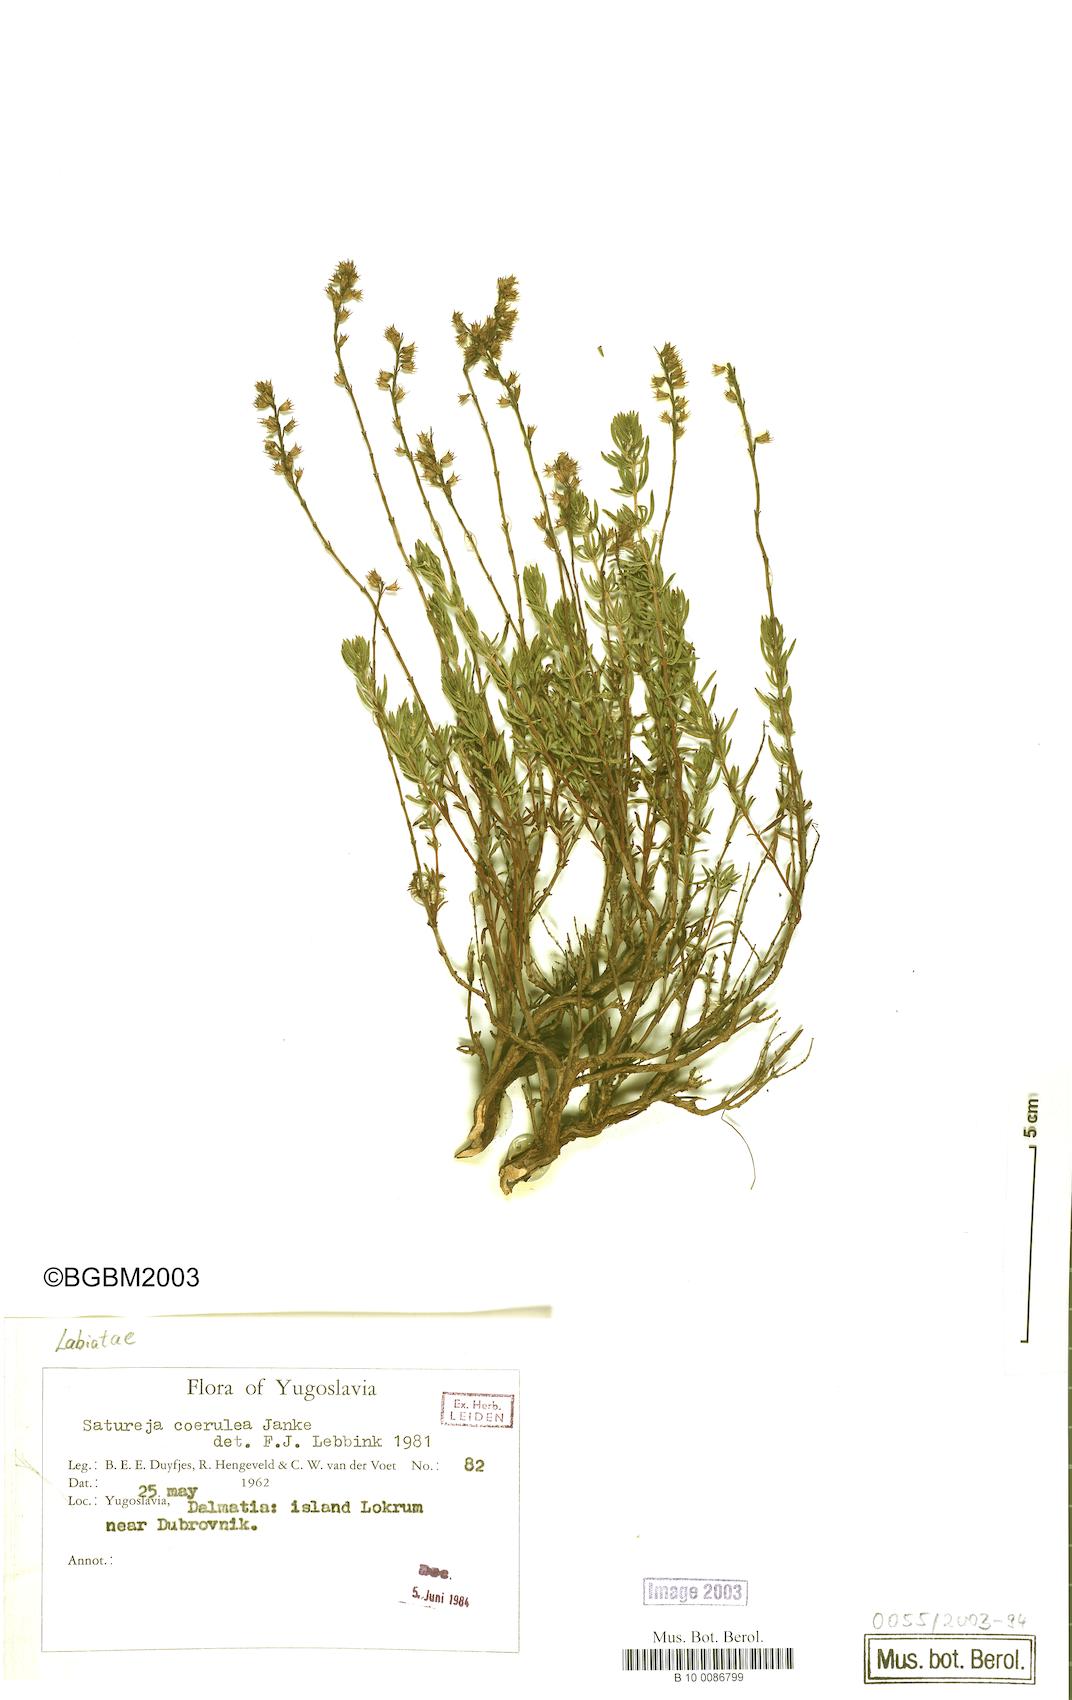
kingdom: Plantae
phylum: Tracheophyta
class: Magnoliopsida
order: Lamiales
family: Lamiaceae
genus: Satureja
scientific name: Satureja coerulea
